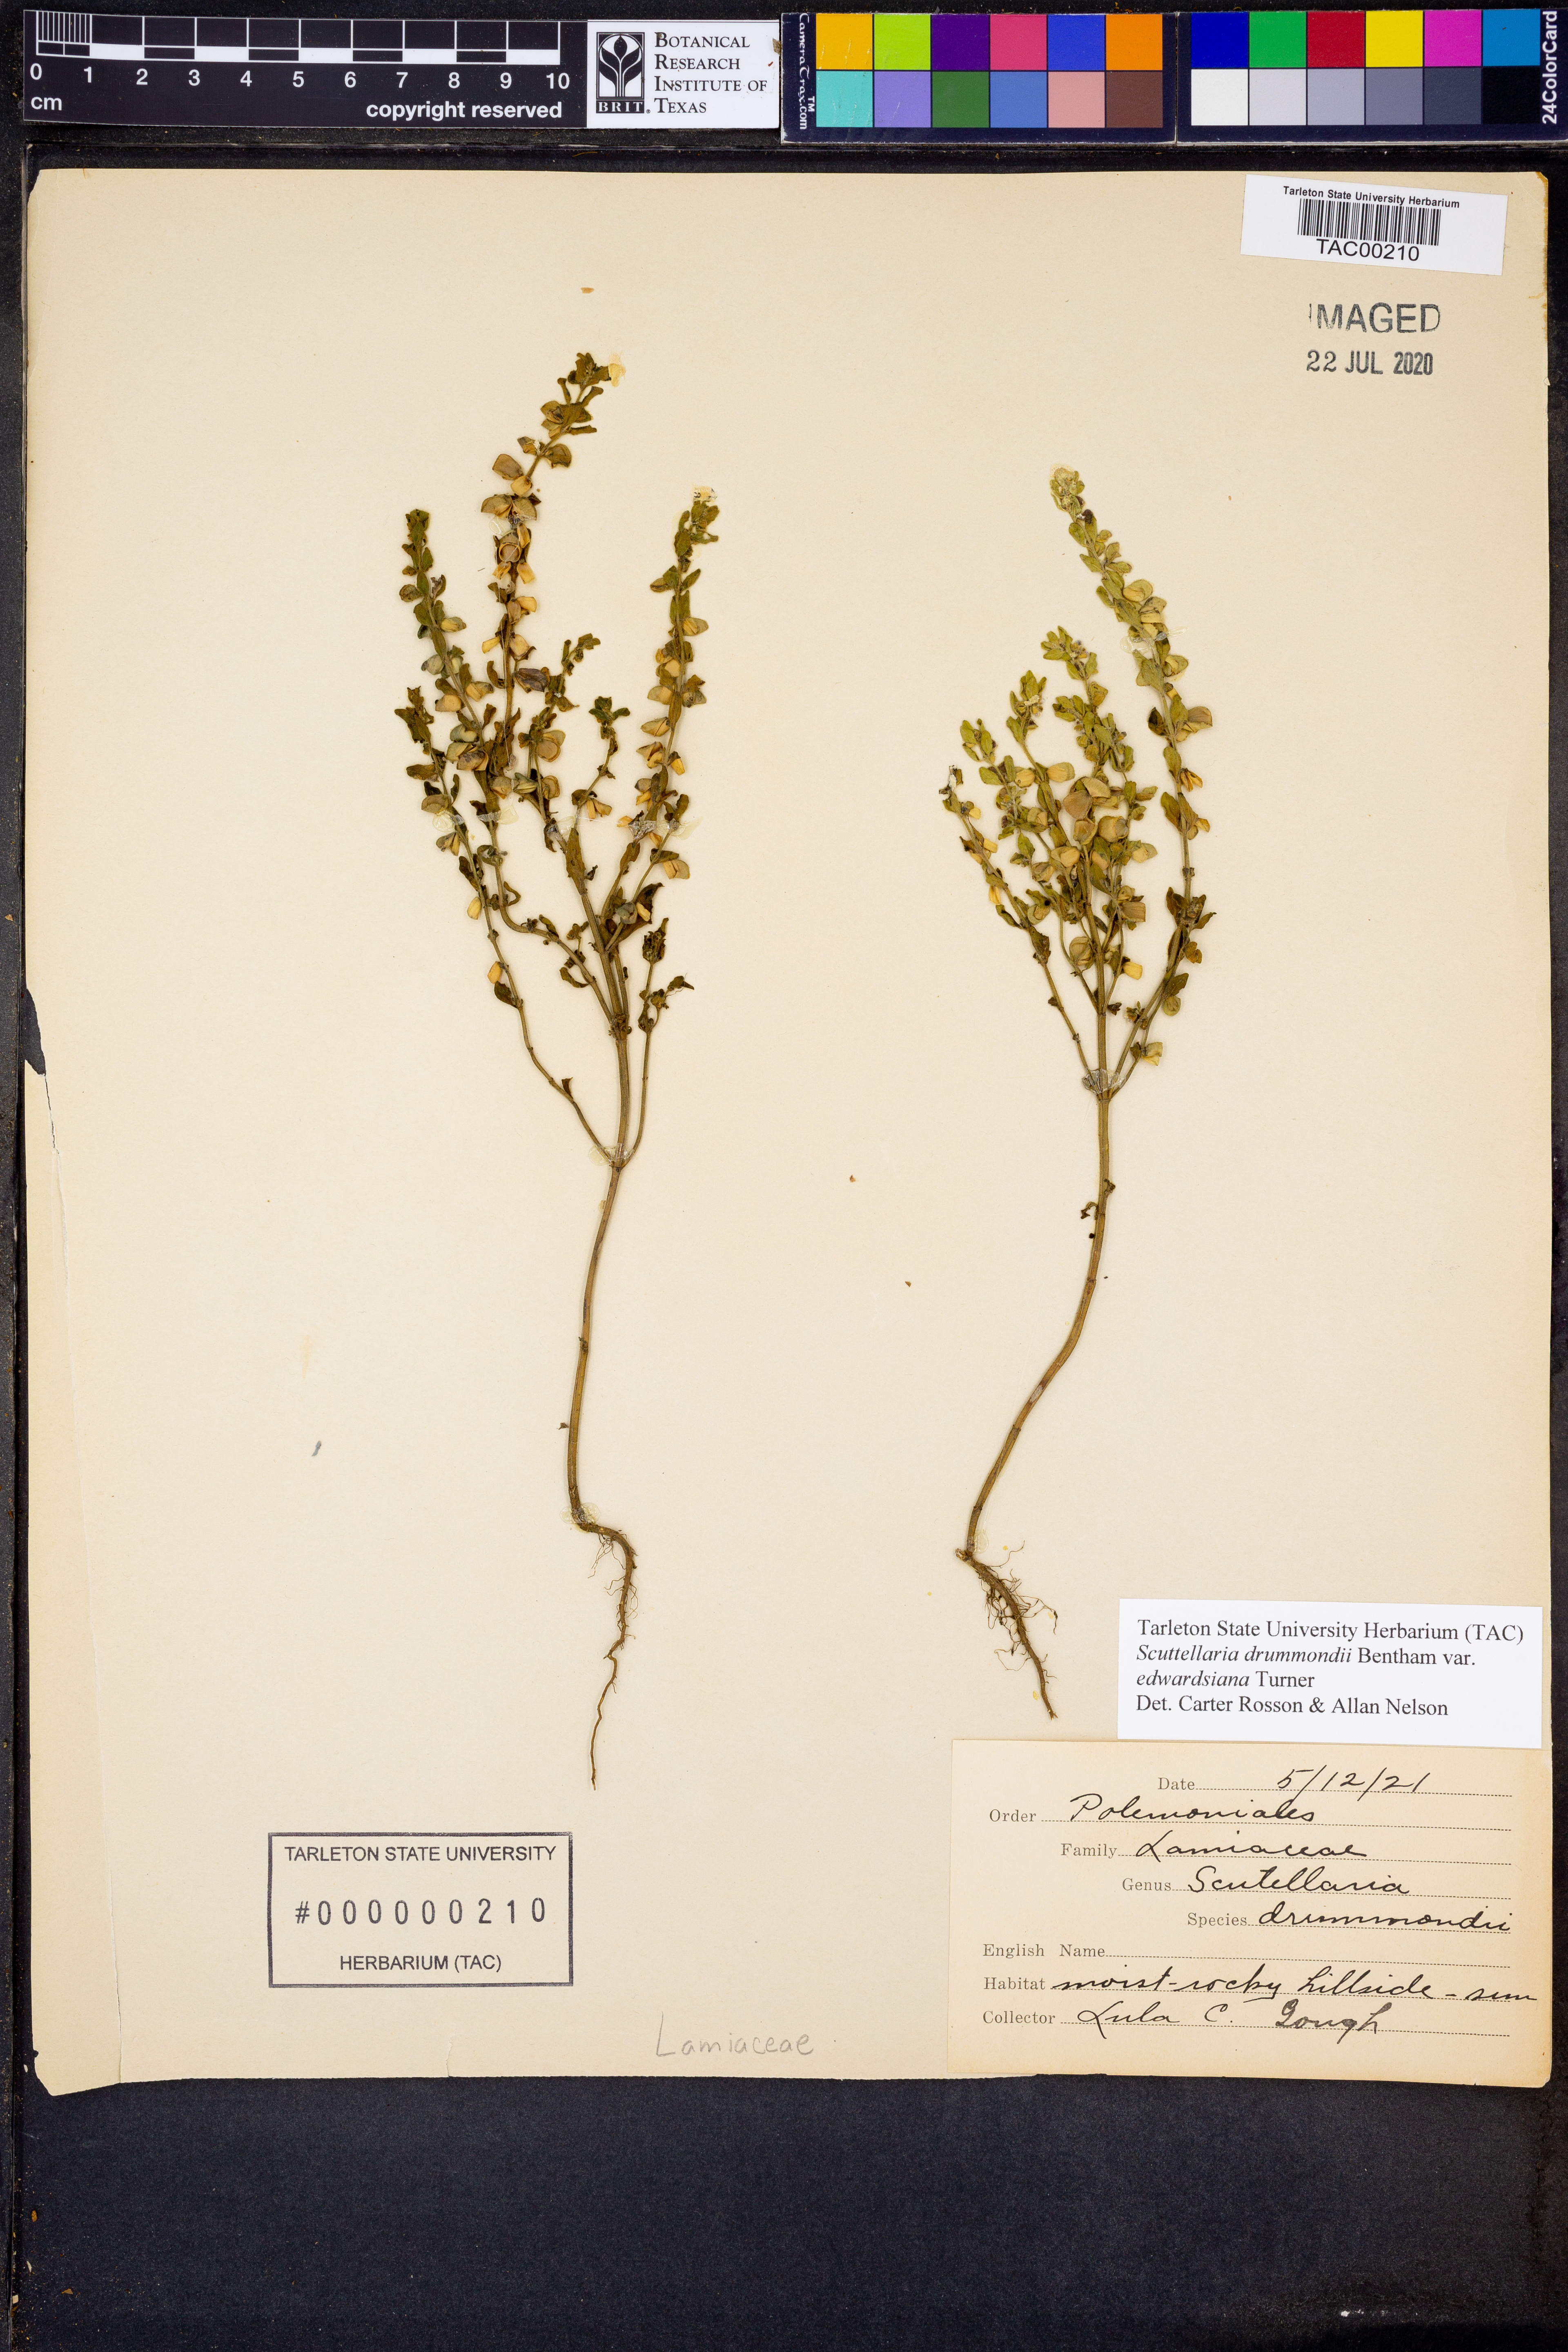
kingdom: Plantae
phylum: Tracheophyta
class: Magnoliopsida
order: Lamiales
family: Lamiaceae
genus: Scutellaria
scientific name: Scutellaria drummondii
